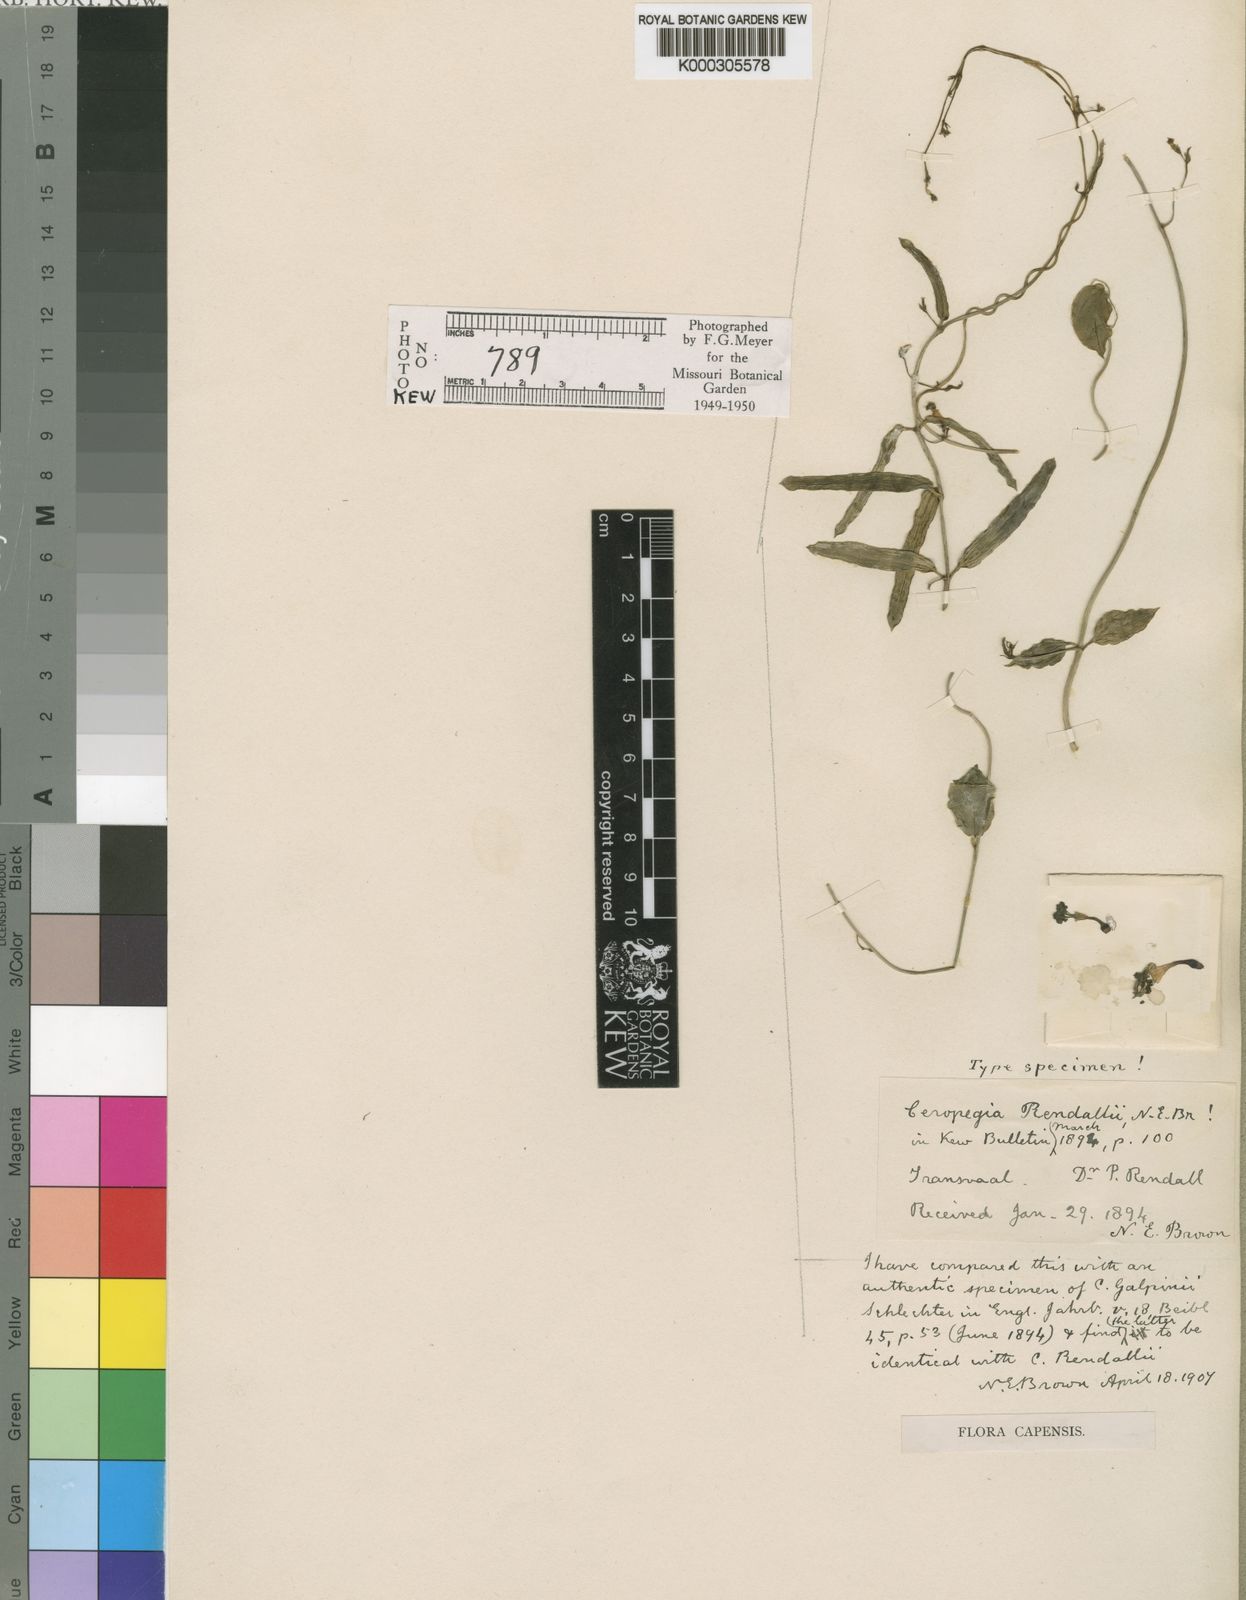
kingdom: Plantae
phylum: Tracheophyta
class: Magnoliopsida
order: Gentianales
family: Apocynaceae
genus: Ceropegia
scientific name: Ceropegia rendallii
